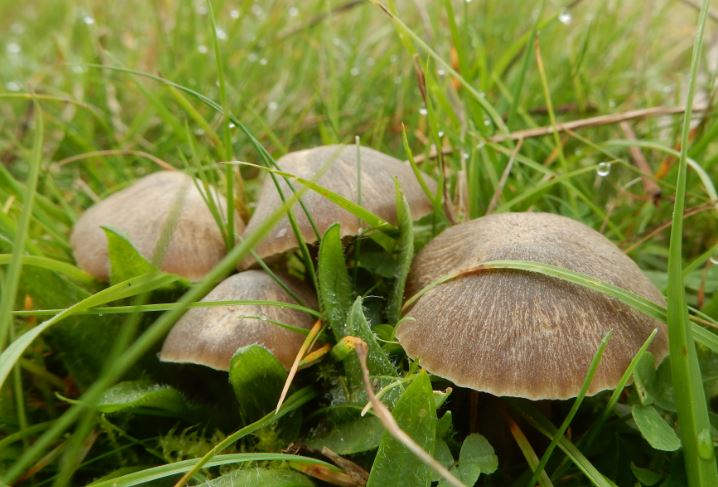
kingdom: Fungi
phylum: Basidiomycota
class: Agaricomycetes
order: Agaricales
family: Hygrophoraceae
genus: Neohygrocybe
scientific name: Neohygrocybe nitrata
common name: stinkende vokshat
